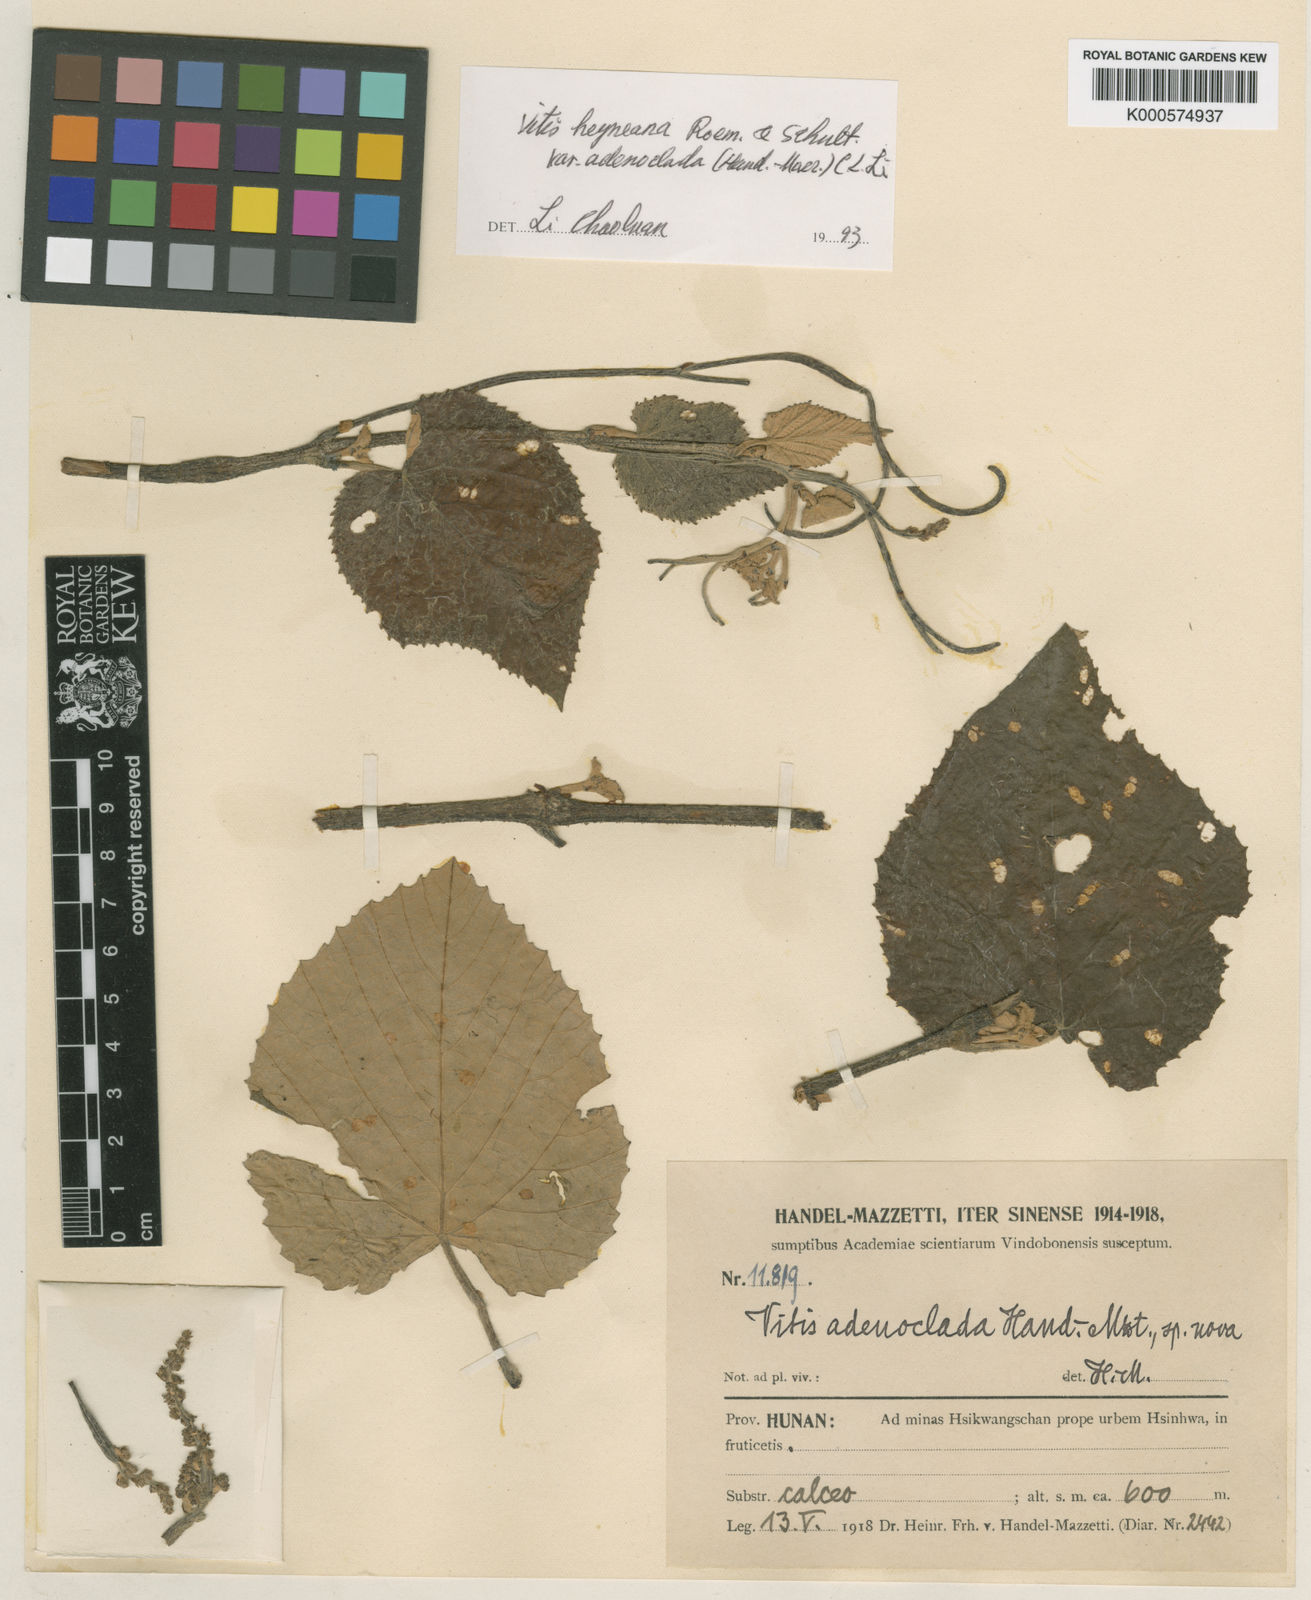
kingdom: Plantae
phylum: Tracheophyta
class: Magnoliopsida
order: Vitales
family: Vitaceae
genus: Vitis
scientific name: Vitis adenoclada
